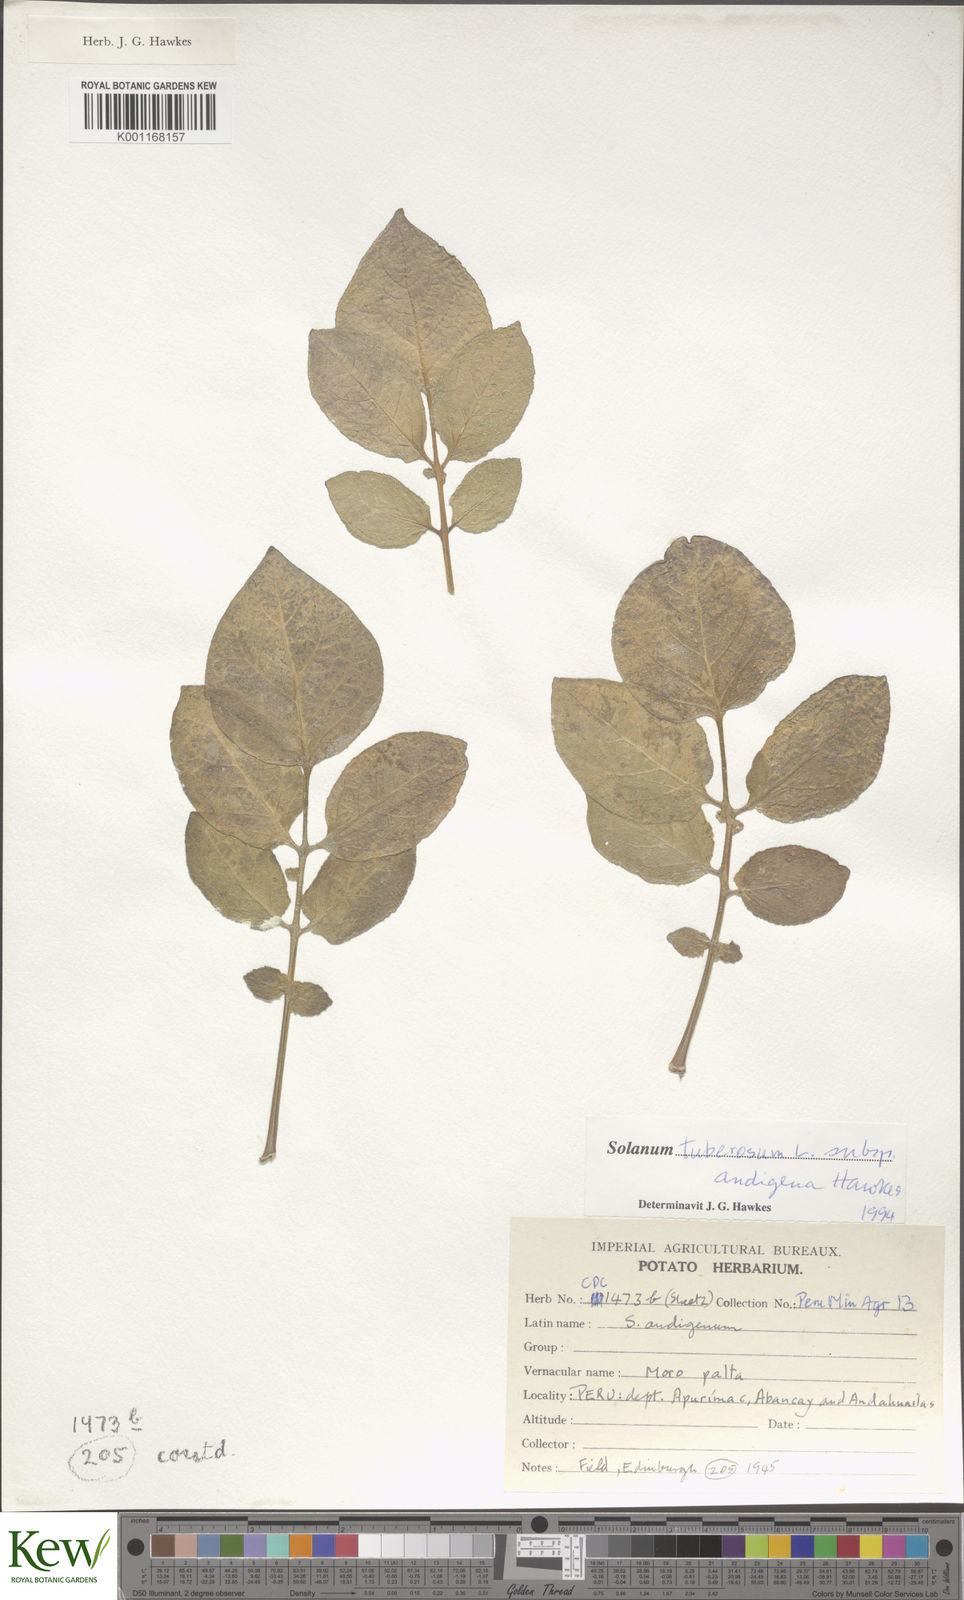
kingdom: Plantae
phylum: Tracheophyta
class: Magnoliopsida
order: Solanales
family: Solanaceae
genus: Solanum
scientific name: Solanum tuberosum
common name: Potato
